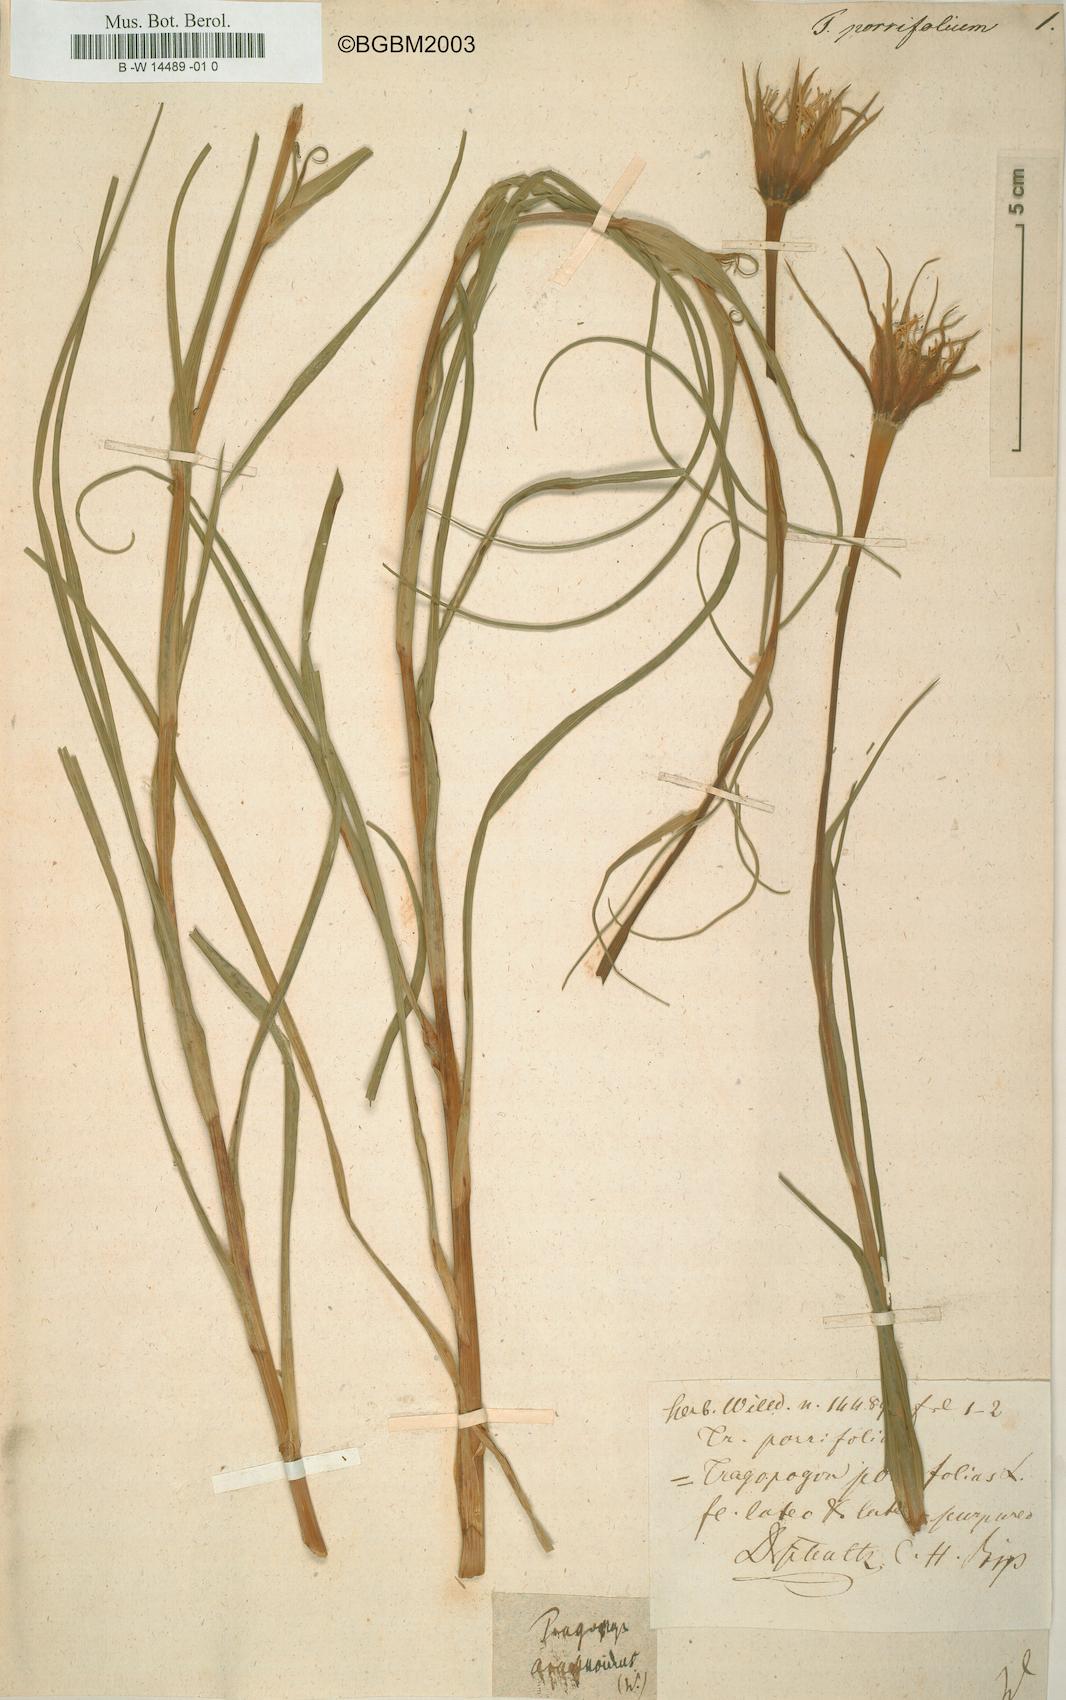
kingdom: Plantae
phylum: Tracheophyta
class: Magnoliopsida
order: Asterales
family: Asteraceae
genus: Tragopogon
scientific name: Tragopogon porrifolius
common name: Salsify
